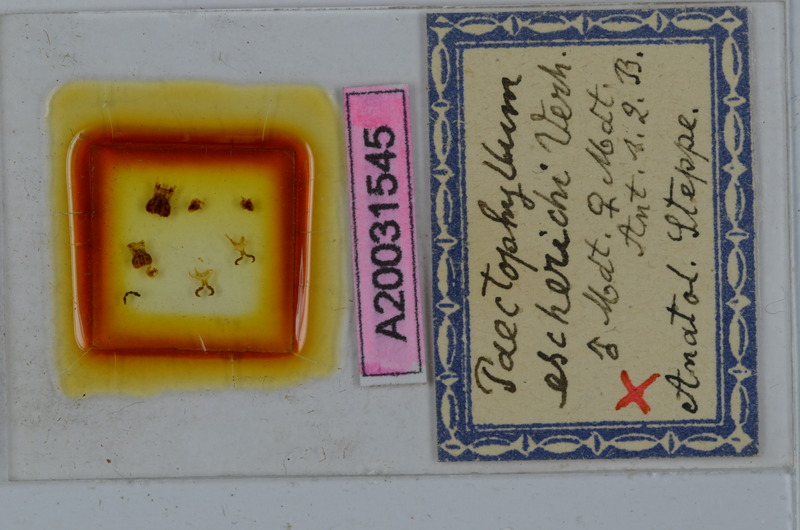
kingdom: Animalia
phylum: Arthropoda
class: Diplopoda
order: Julida
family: Julidae
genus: Paectophyllum
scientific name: Paectophyllum escherichii
